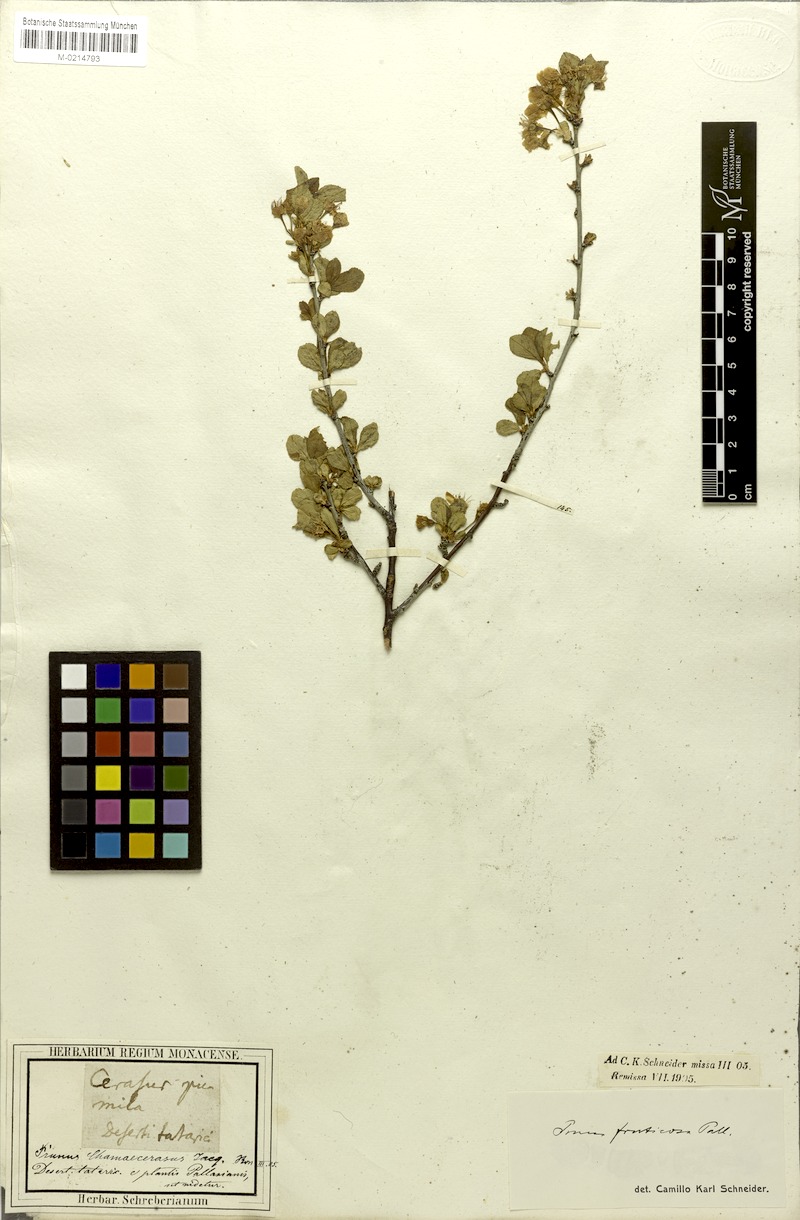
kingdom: Plantae
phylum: Tracheophyta
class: Magnoliopsida
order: Rosales
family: Rosaceae
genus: Prunus
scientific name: Prunus fruticosa
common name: European dwarf cherry
